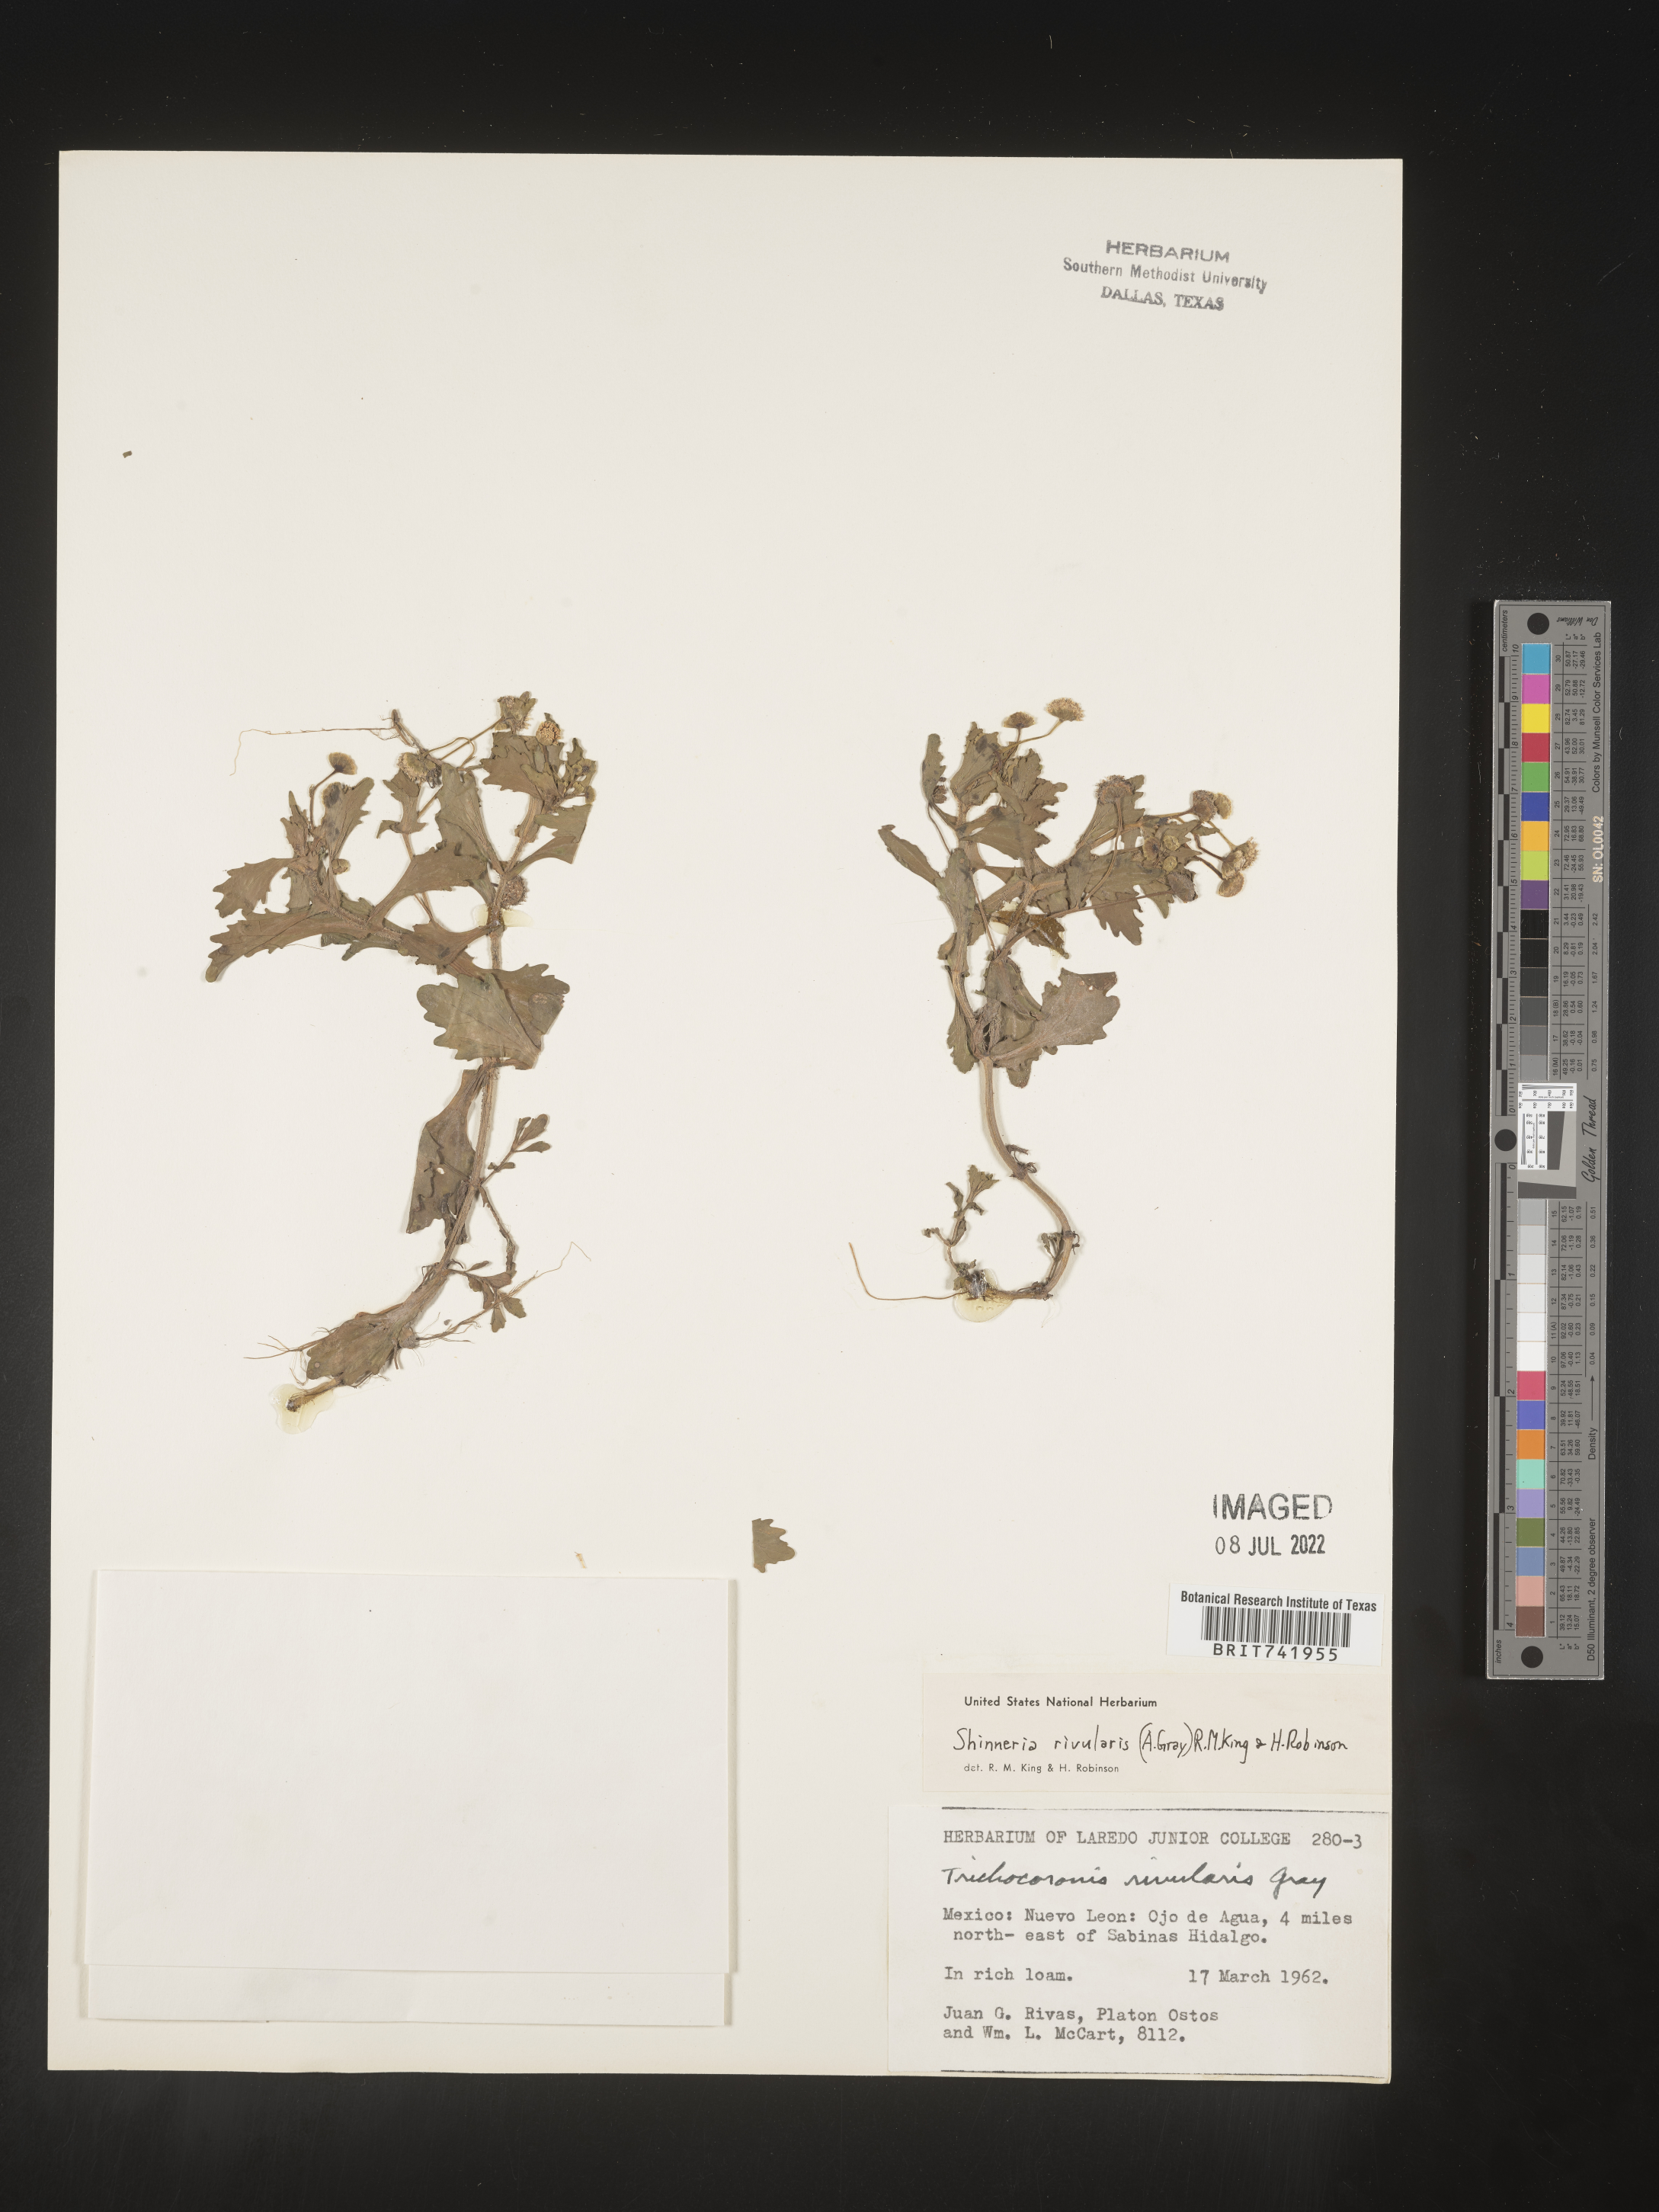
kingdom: Plantae
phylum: Tracheophyta
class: Magnoliopsida
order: Asterales
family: Asteraceae
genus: Shinnersia
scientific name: Shinnersia
